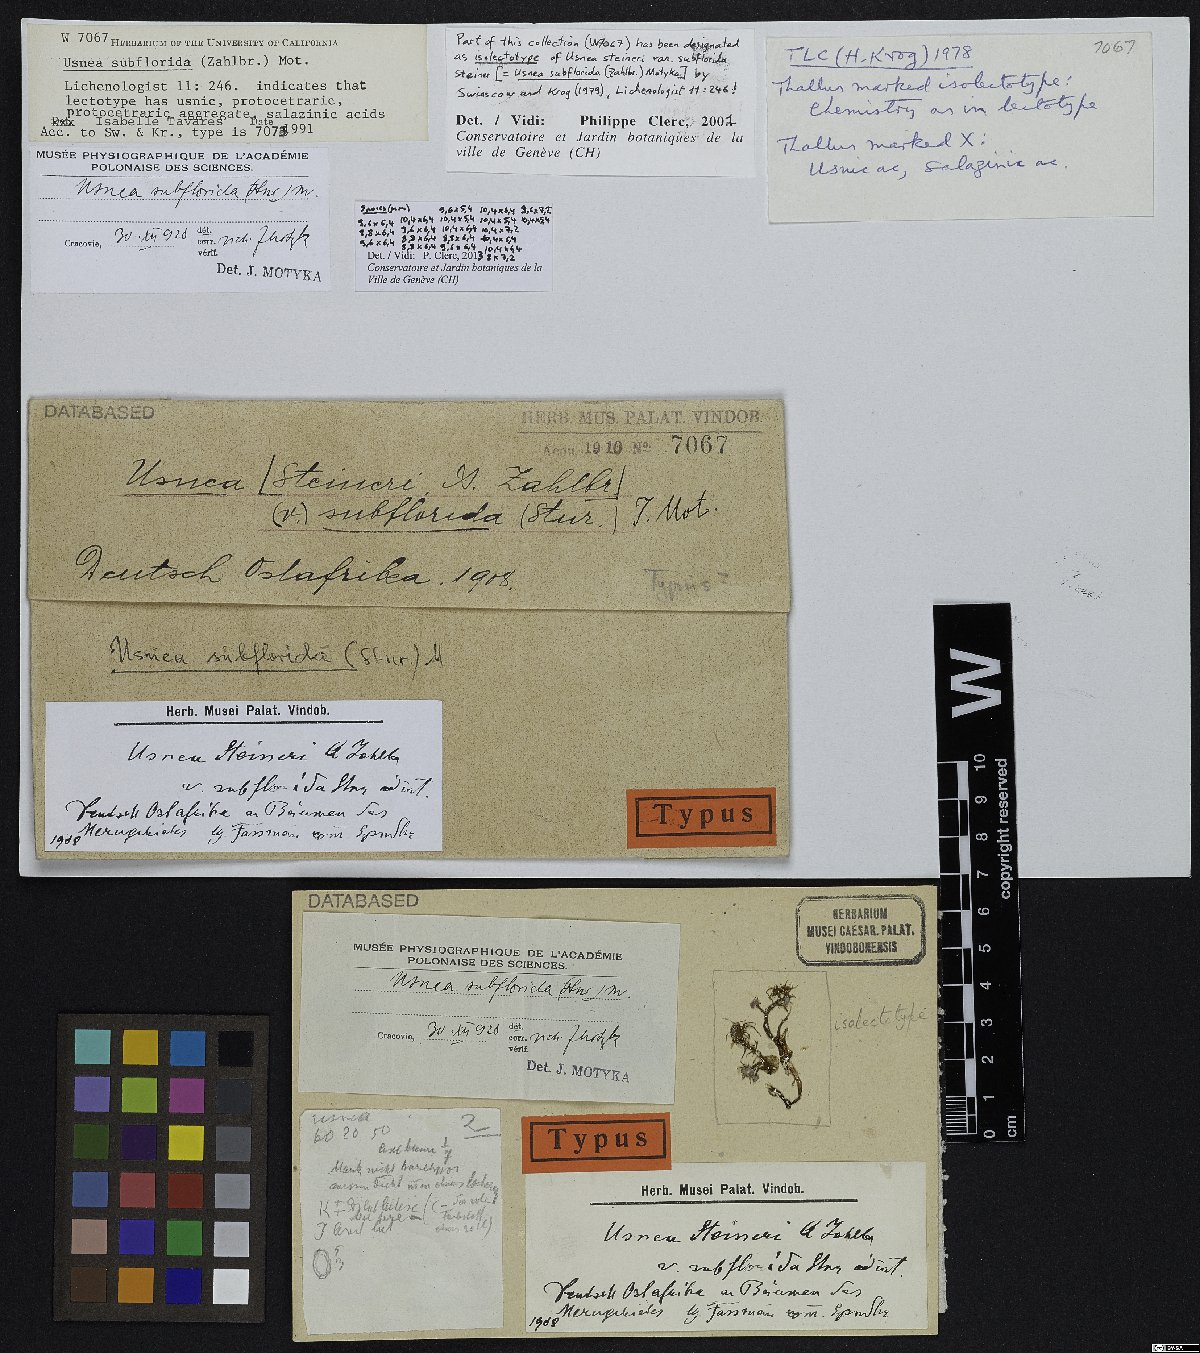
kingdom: Fungi
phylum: Ascomycota
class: Lecanoromycetes
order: Lecanorales
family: Parmeliaceae
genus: Usnea
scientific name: Usnea steineri
